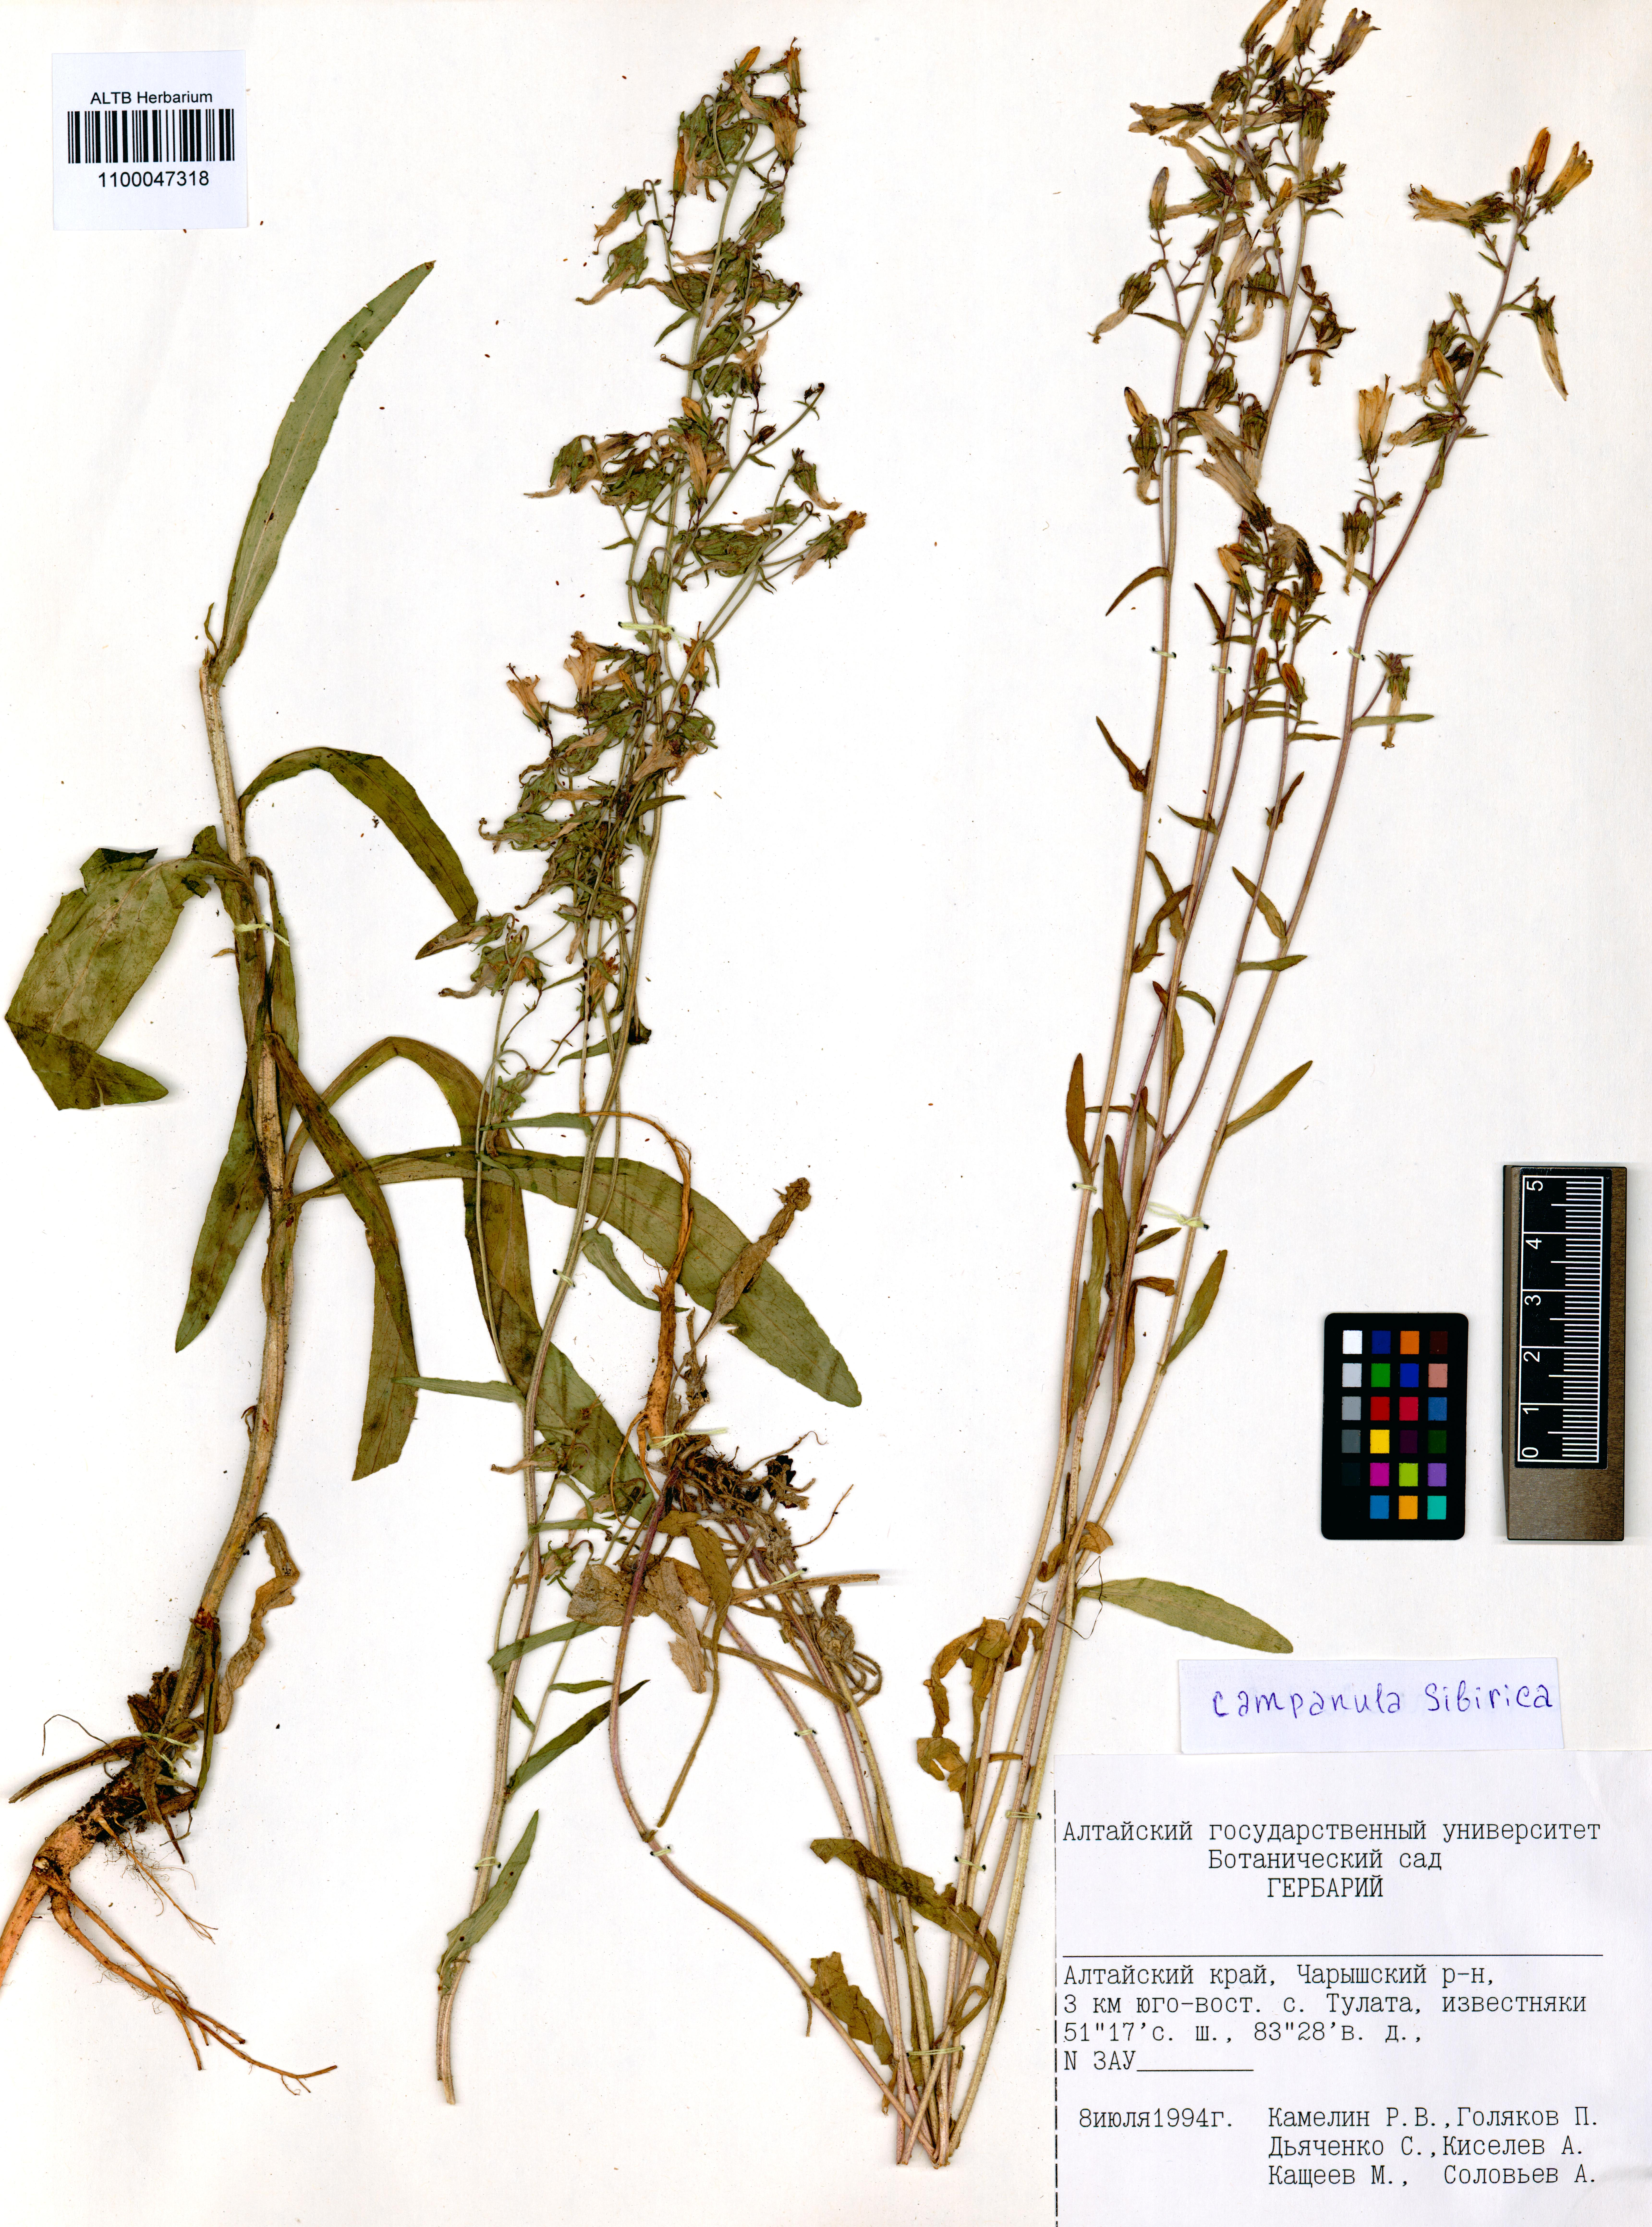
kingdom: Plantae
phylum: Tracheophyta
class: Magnoliopsida
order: Asterales
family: Campanulaceae
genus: Campanula
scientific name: Campanula sibirica
